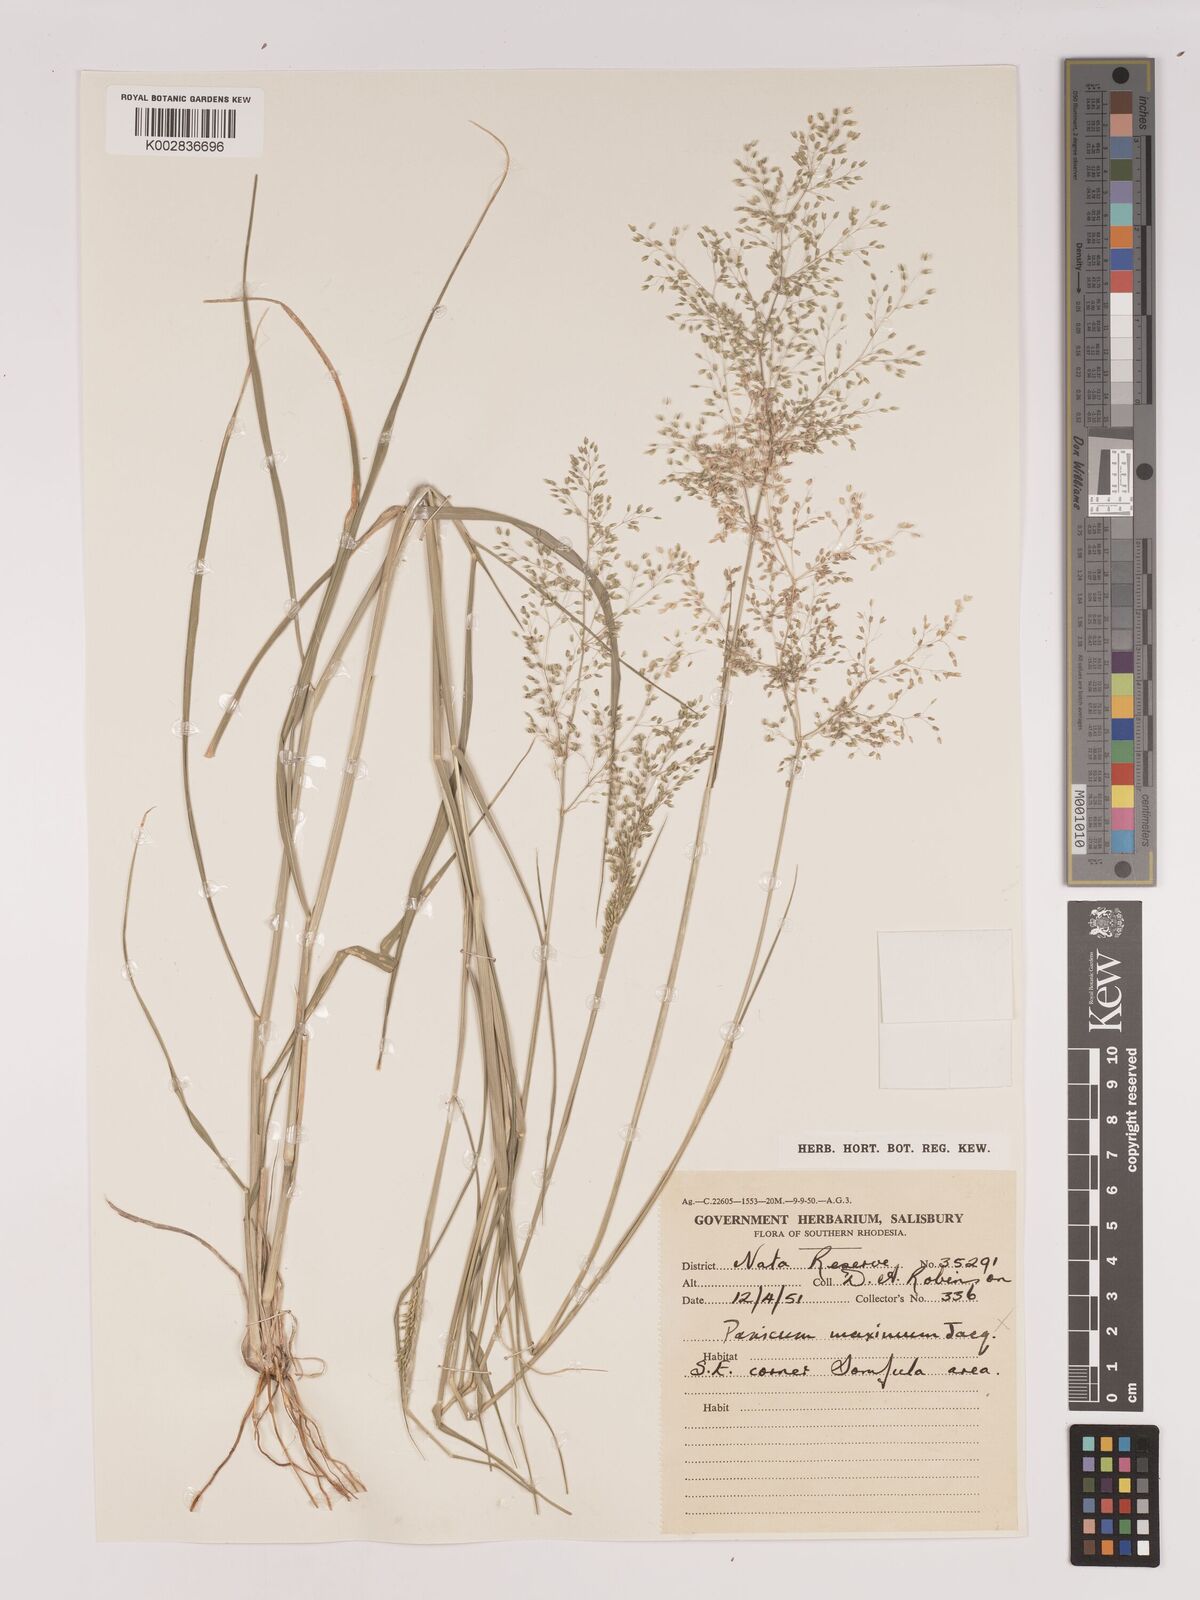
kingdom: Plantae
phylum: Tracheophyta
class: Liliopsida
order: Poales
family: Poaceae
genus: Tricholaena
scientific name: Tricholaena monachne
